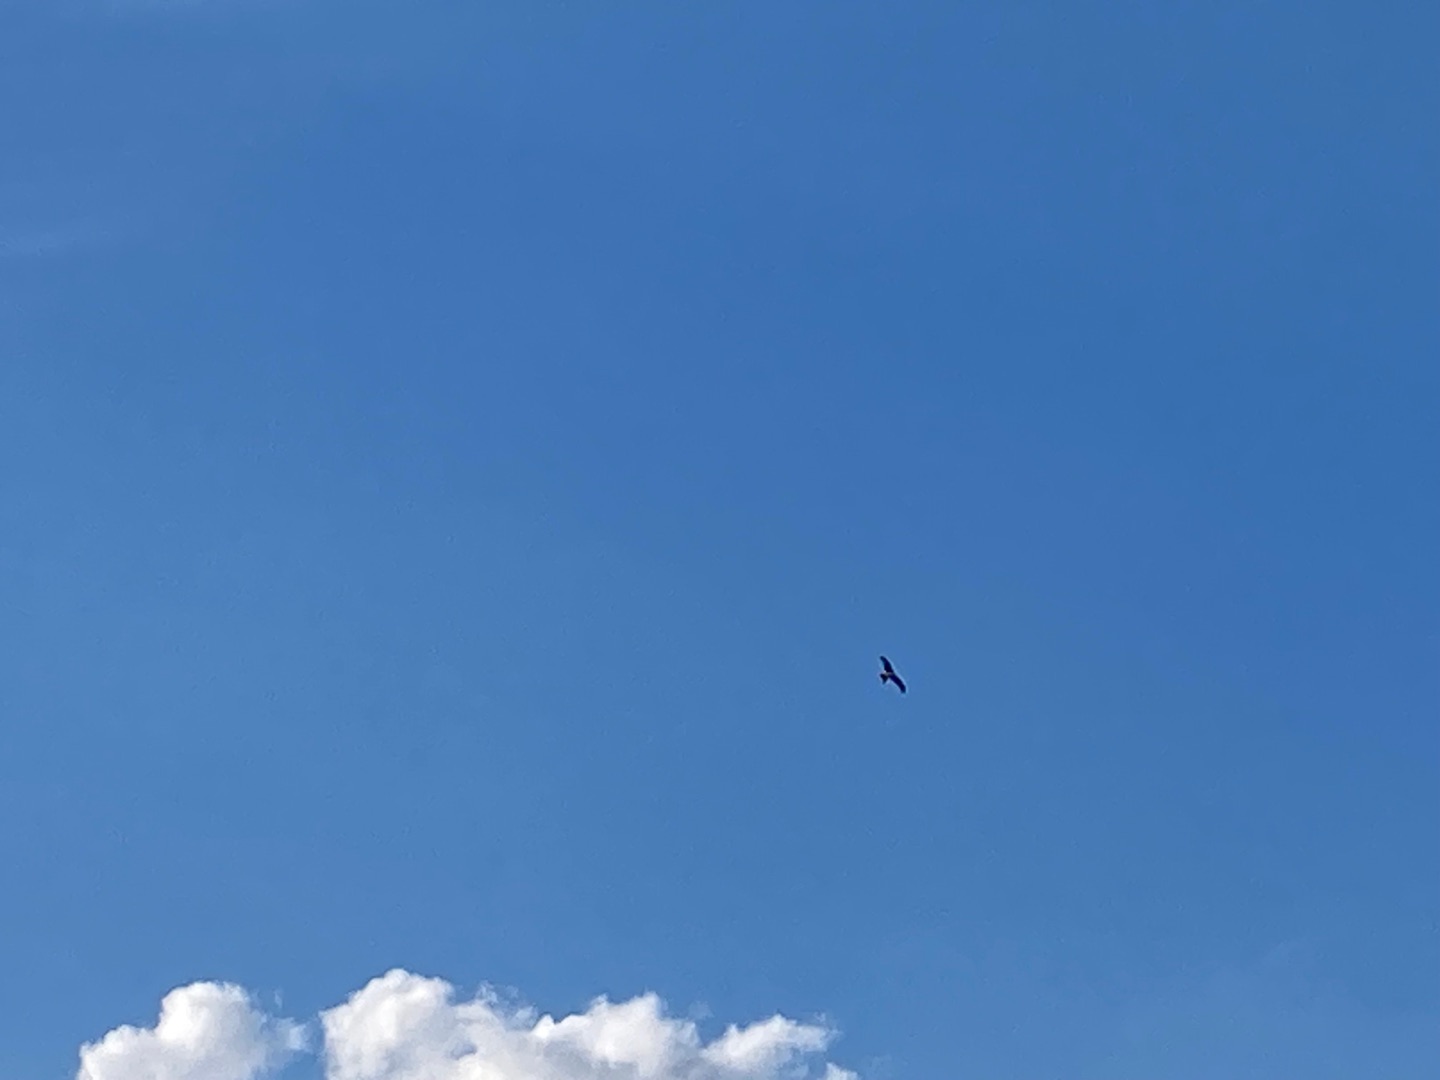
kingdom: Animalia
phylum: Chordata
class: Aves
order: Accipitriformes
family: Accipitridae
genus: Milvus
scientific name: Milvus milvus
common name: Rød glente
